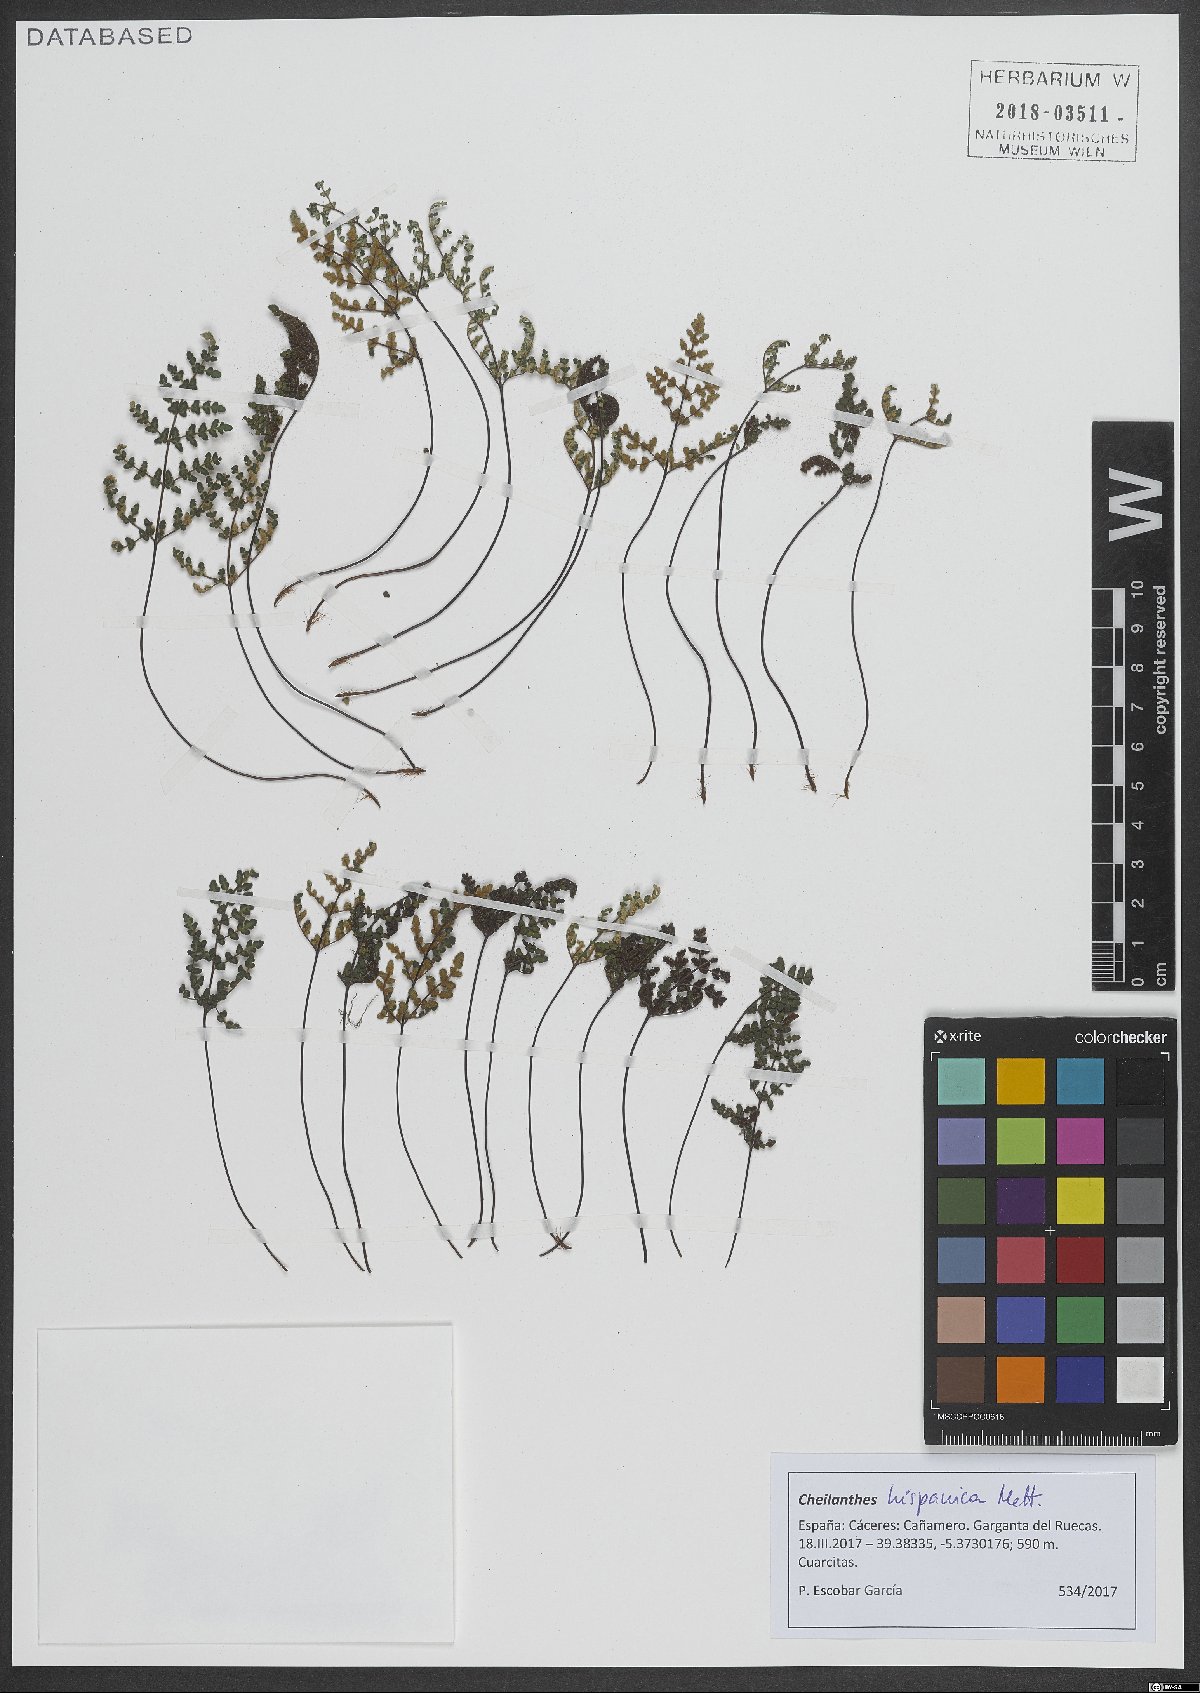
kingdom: Plantae
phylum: Tracheophyta
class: Polypodiopsida
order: Polypodiales
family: Pteridaceae
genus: Oeosporangium
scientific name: Oeosporangium hispanicum
